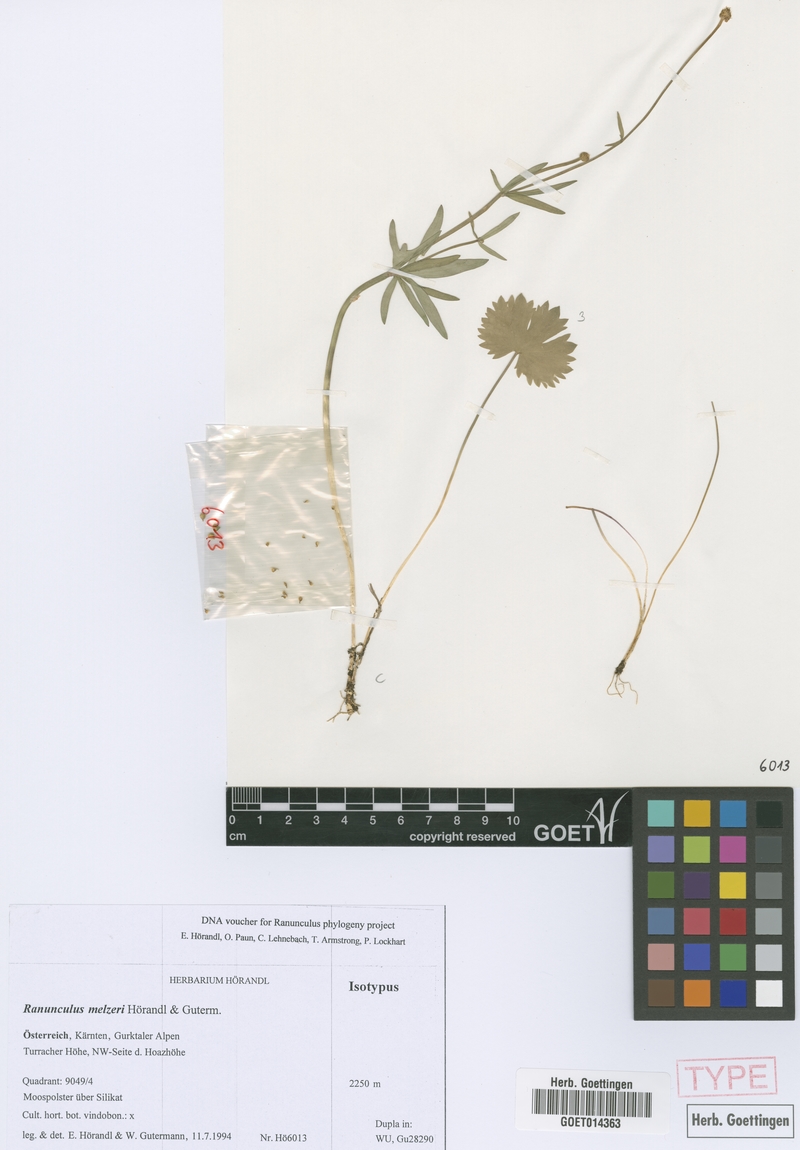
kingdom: Plantae
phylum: Tracheophyta
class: Magnoliopsida
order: Ranunculales
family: Ranunculaceae
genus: Ranunculus
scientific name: Ranunculus melzeri
